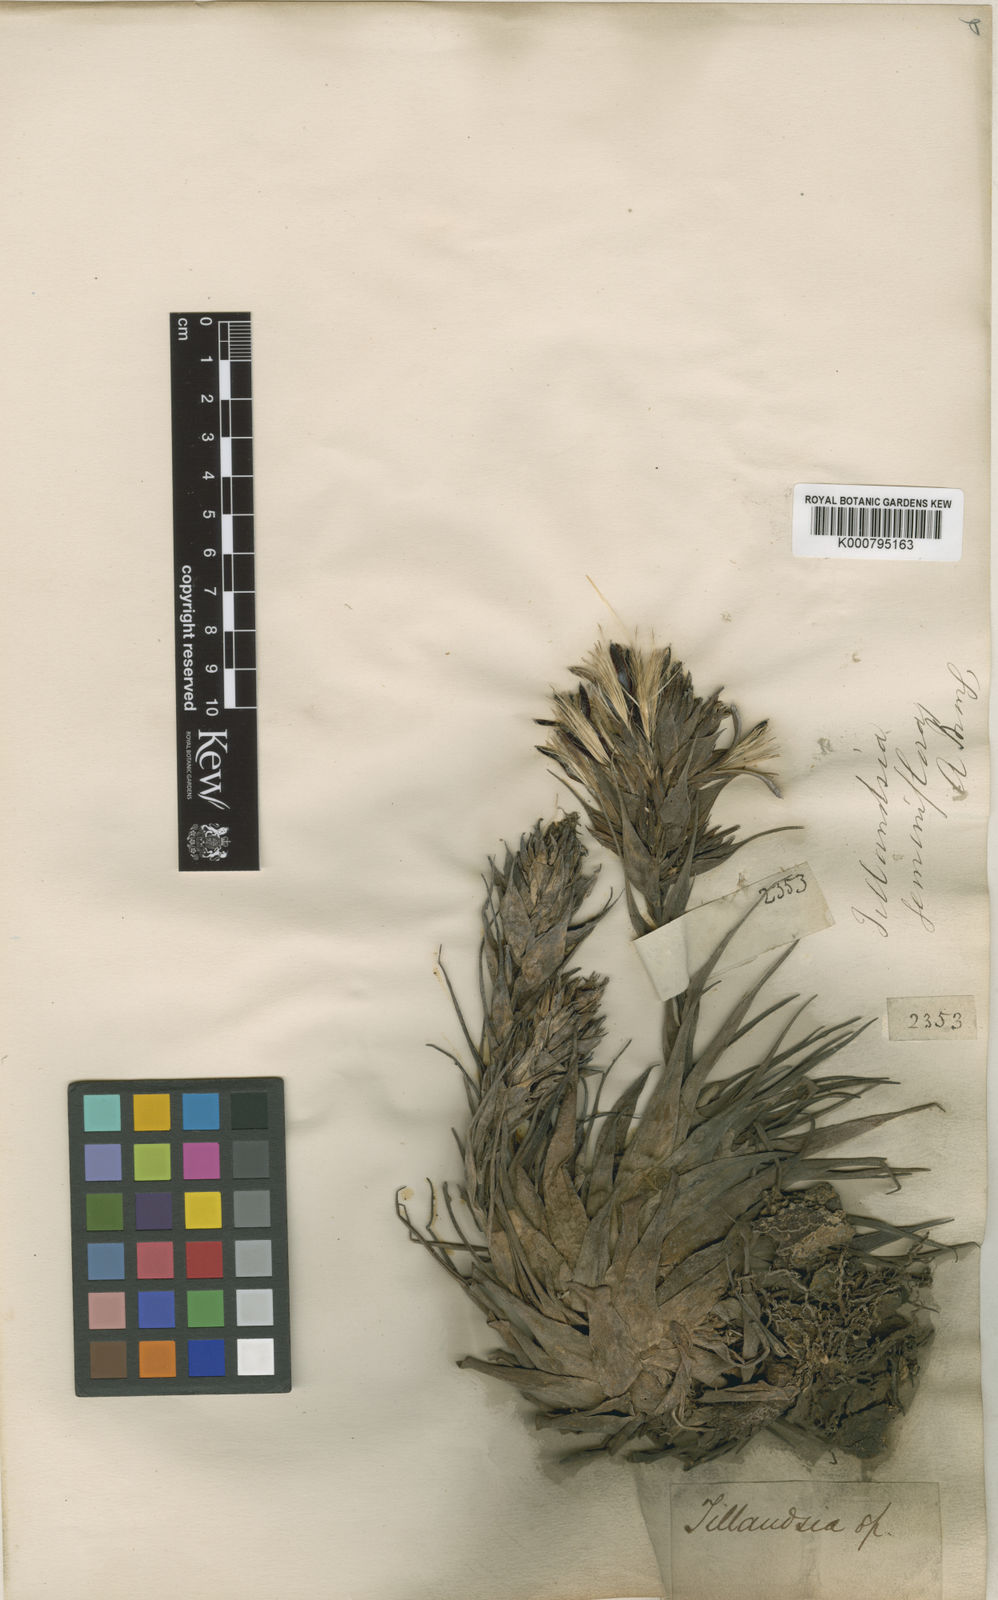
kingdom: Plantae
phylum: Tracheophyta
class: Liliopsida
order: Poales
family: Bromeliaceae
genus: Tillandsia
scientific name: Tillandsia geminiflora
